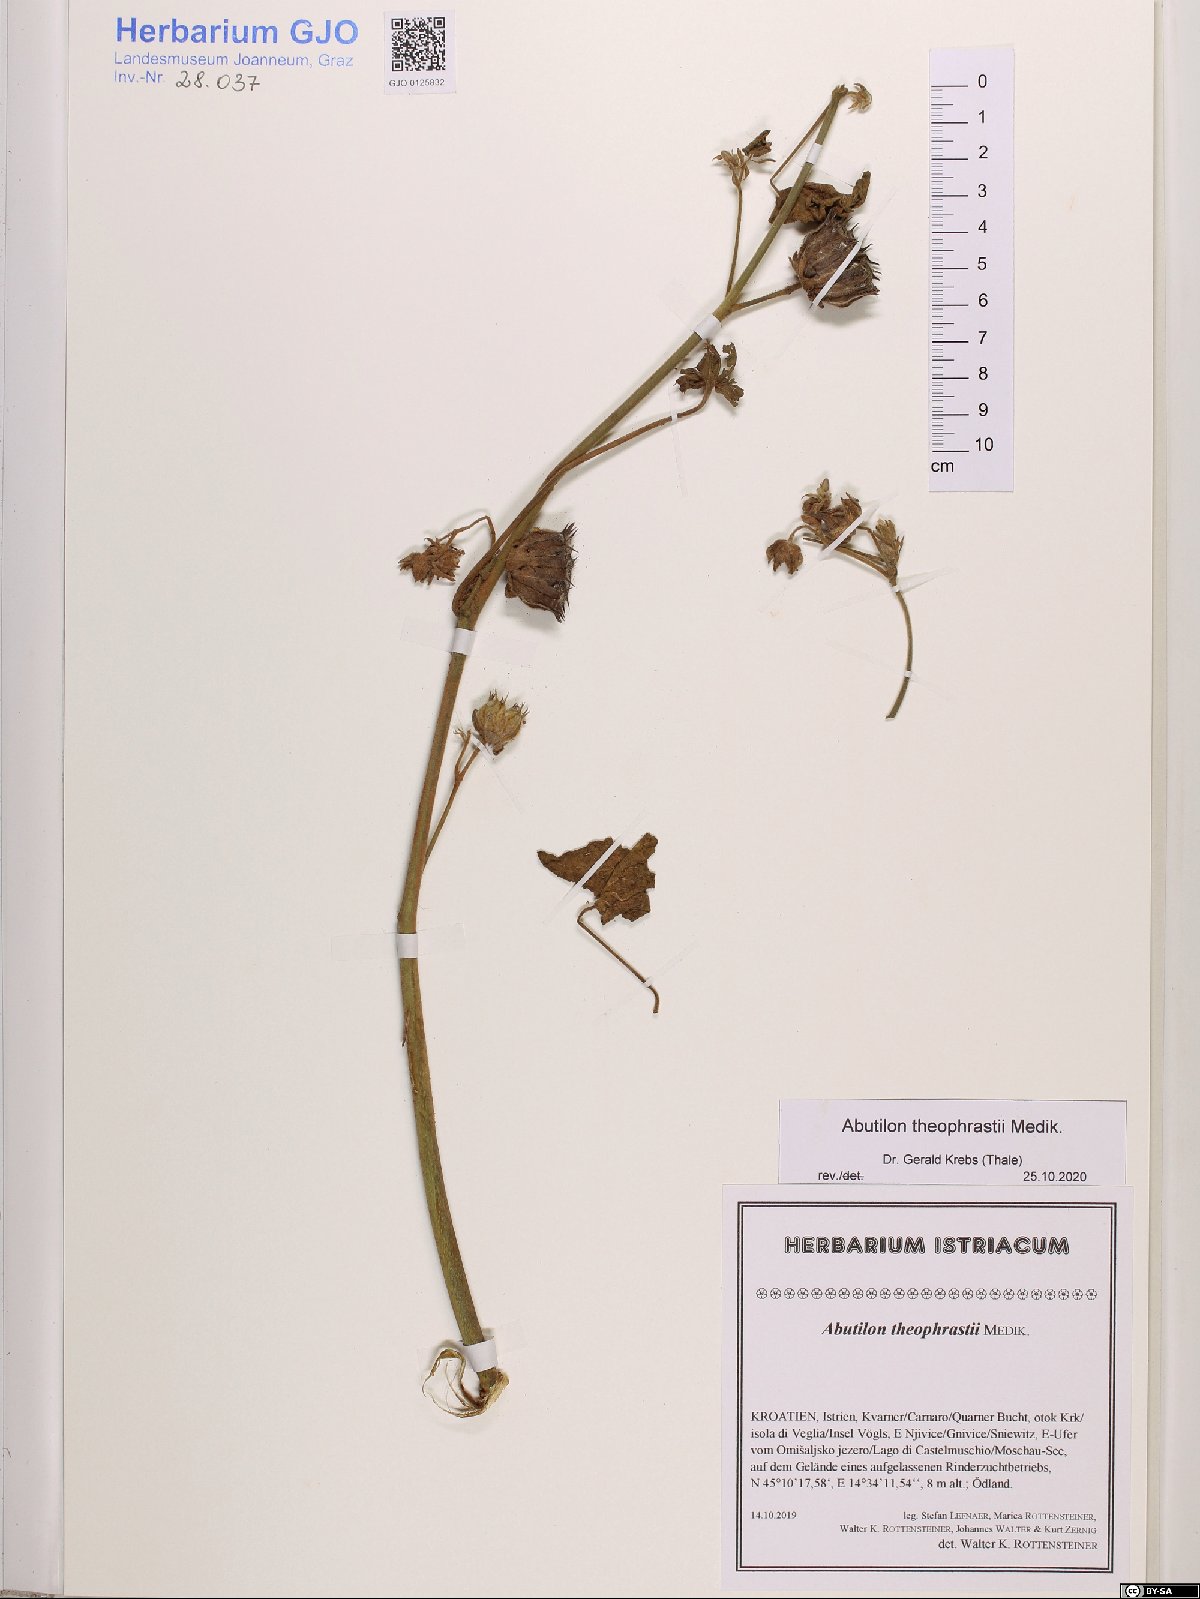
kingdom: Plantae
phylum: Tracheophyta
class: Magnoliopsida
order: Malvales
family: Malvaceae
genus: Abutilon
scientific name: Abutilon theophrasti
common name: Velvetleaf
